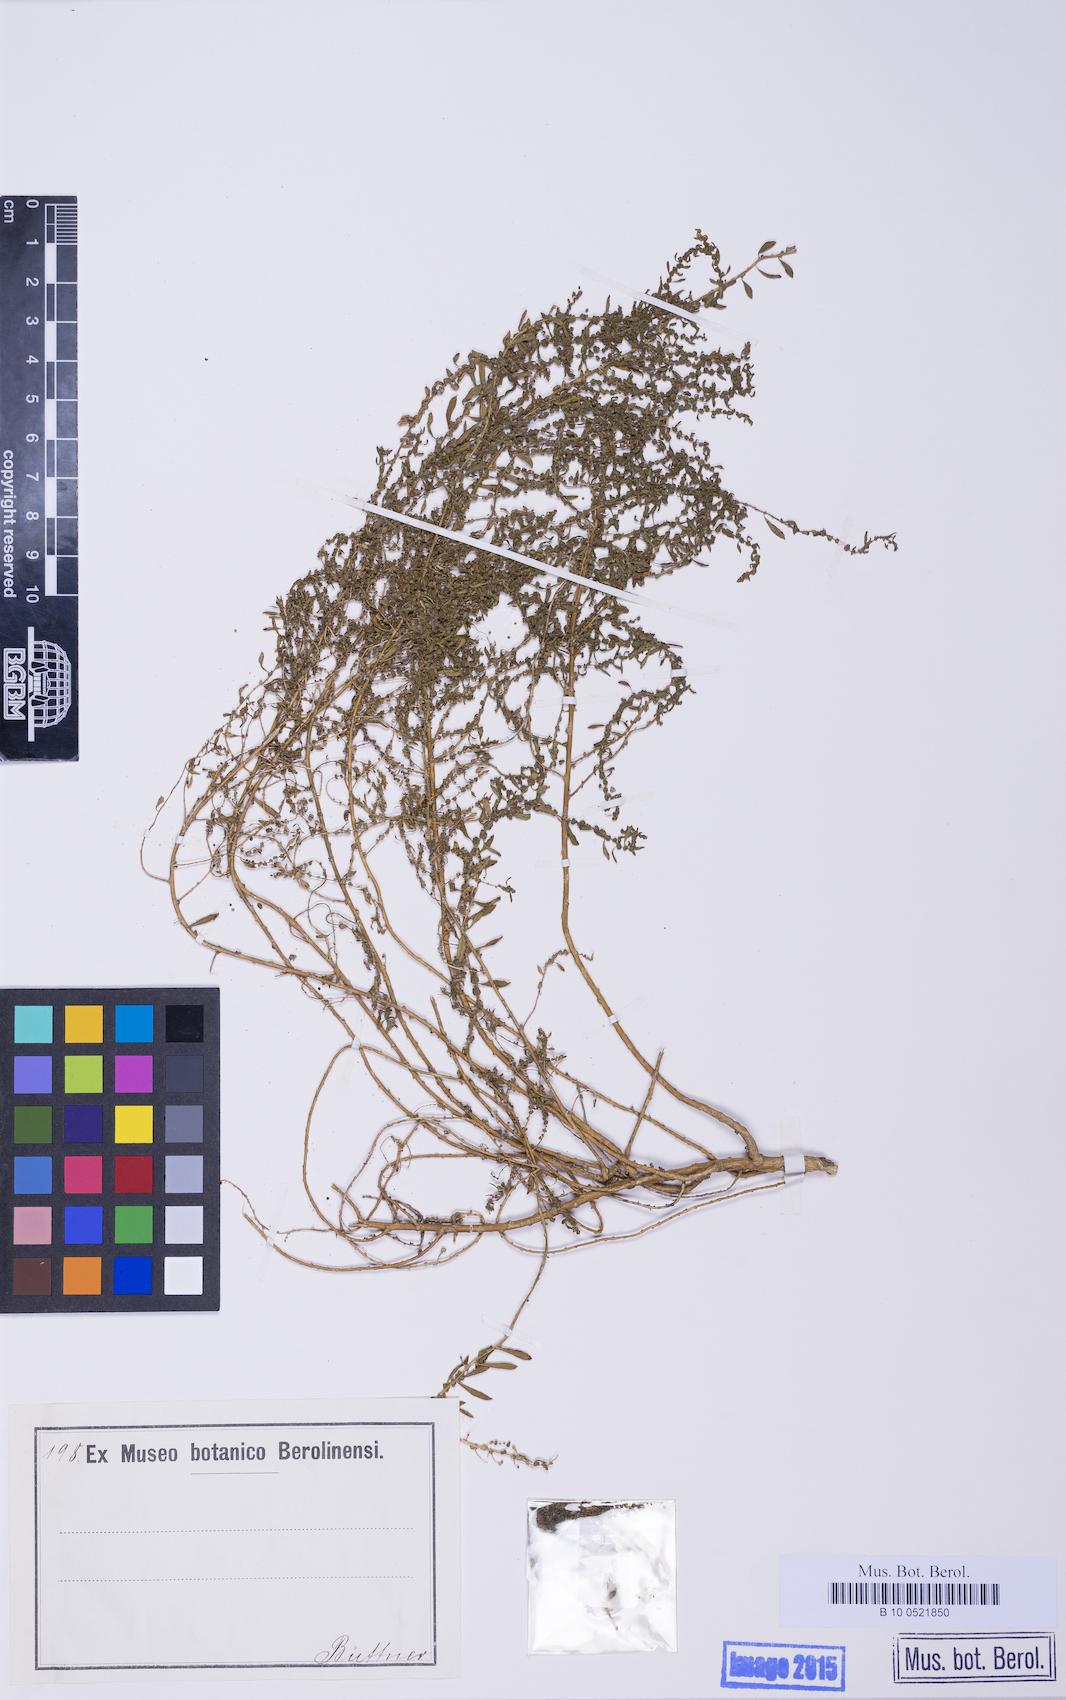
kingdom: Plantae
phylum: Tracheophyta
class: Magnoliopsida
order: Caryophyllales
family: Amaranthaceae
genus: Dysphania
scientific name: Dysphania ambrosioides
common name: Wormseed
